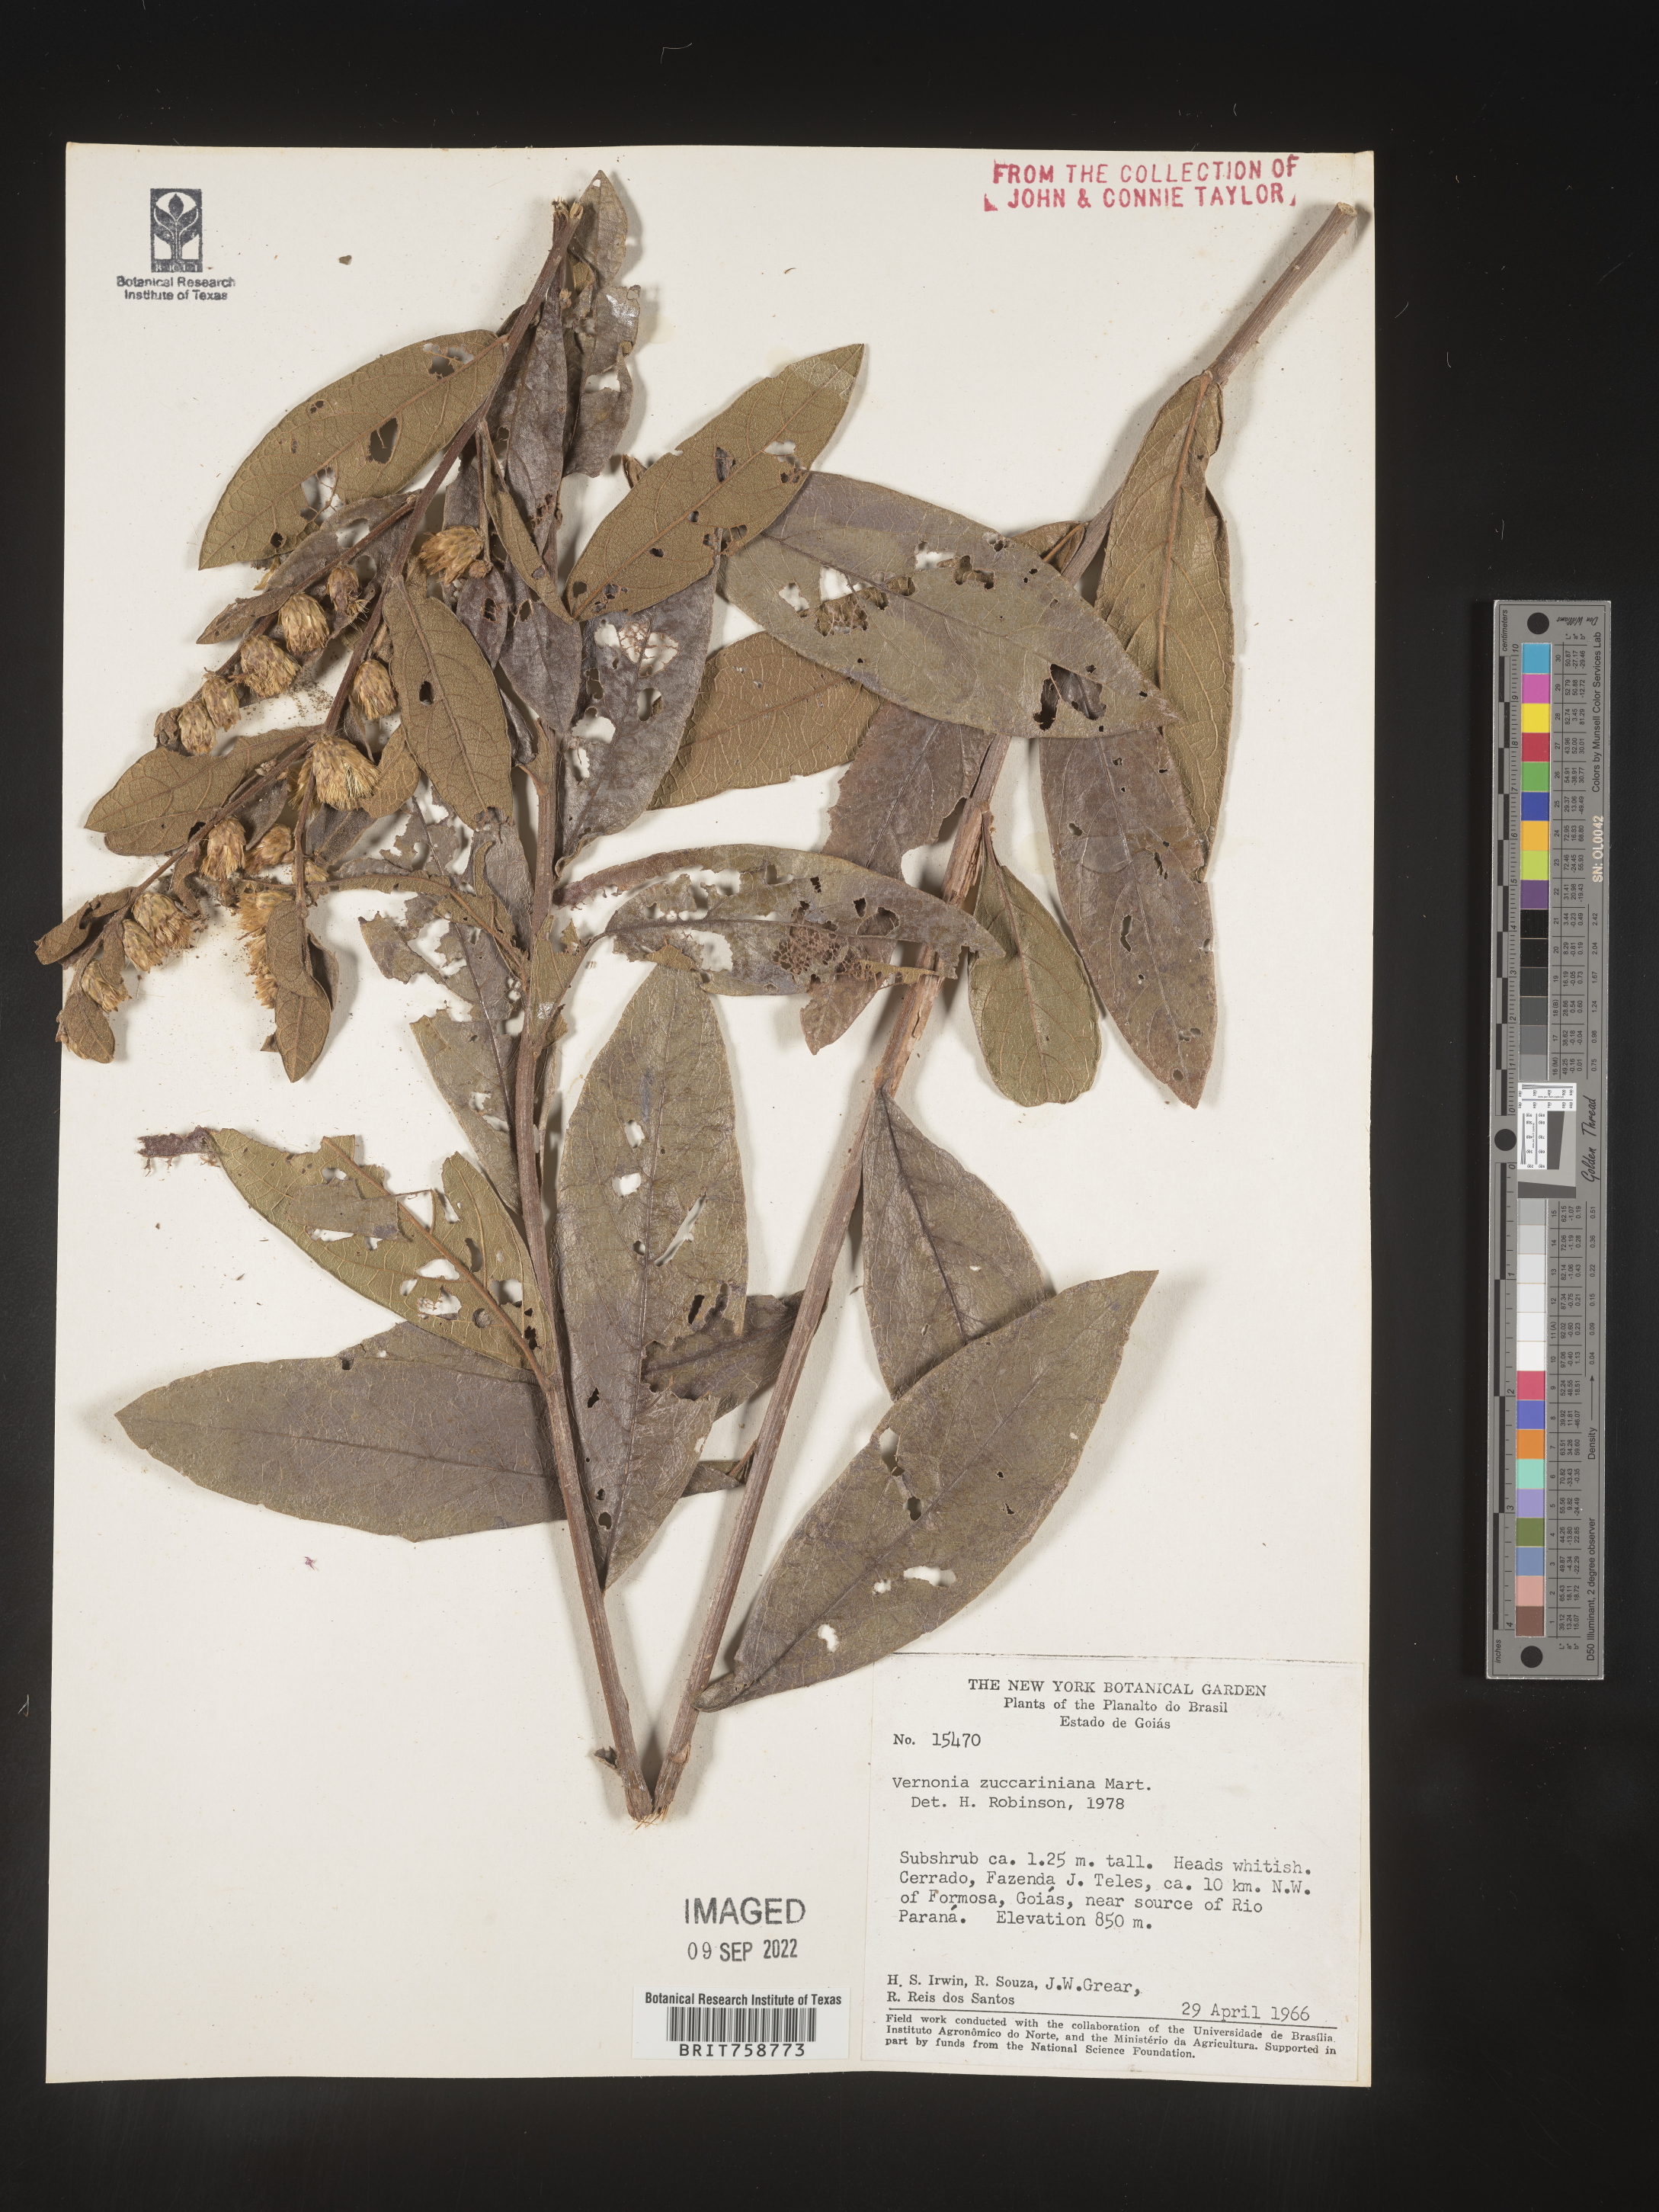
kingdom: Plantae
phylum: Tracheophyta
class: Magnoliopsida
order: Asterales
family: Asteraceae
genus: Vernonia
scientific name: Vernonia
